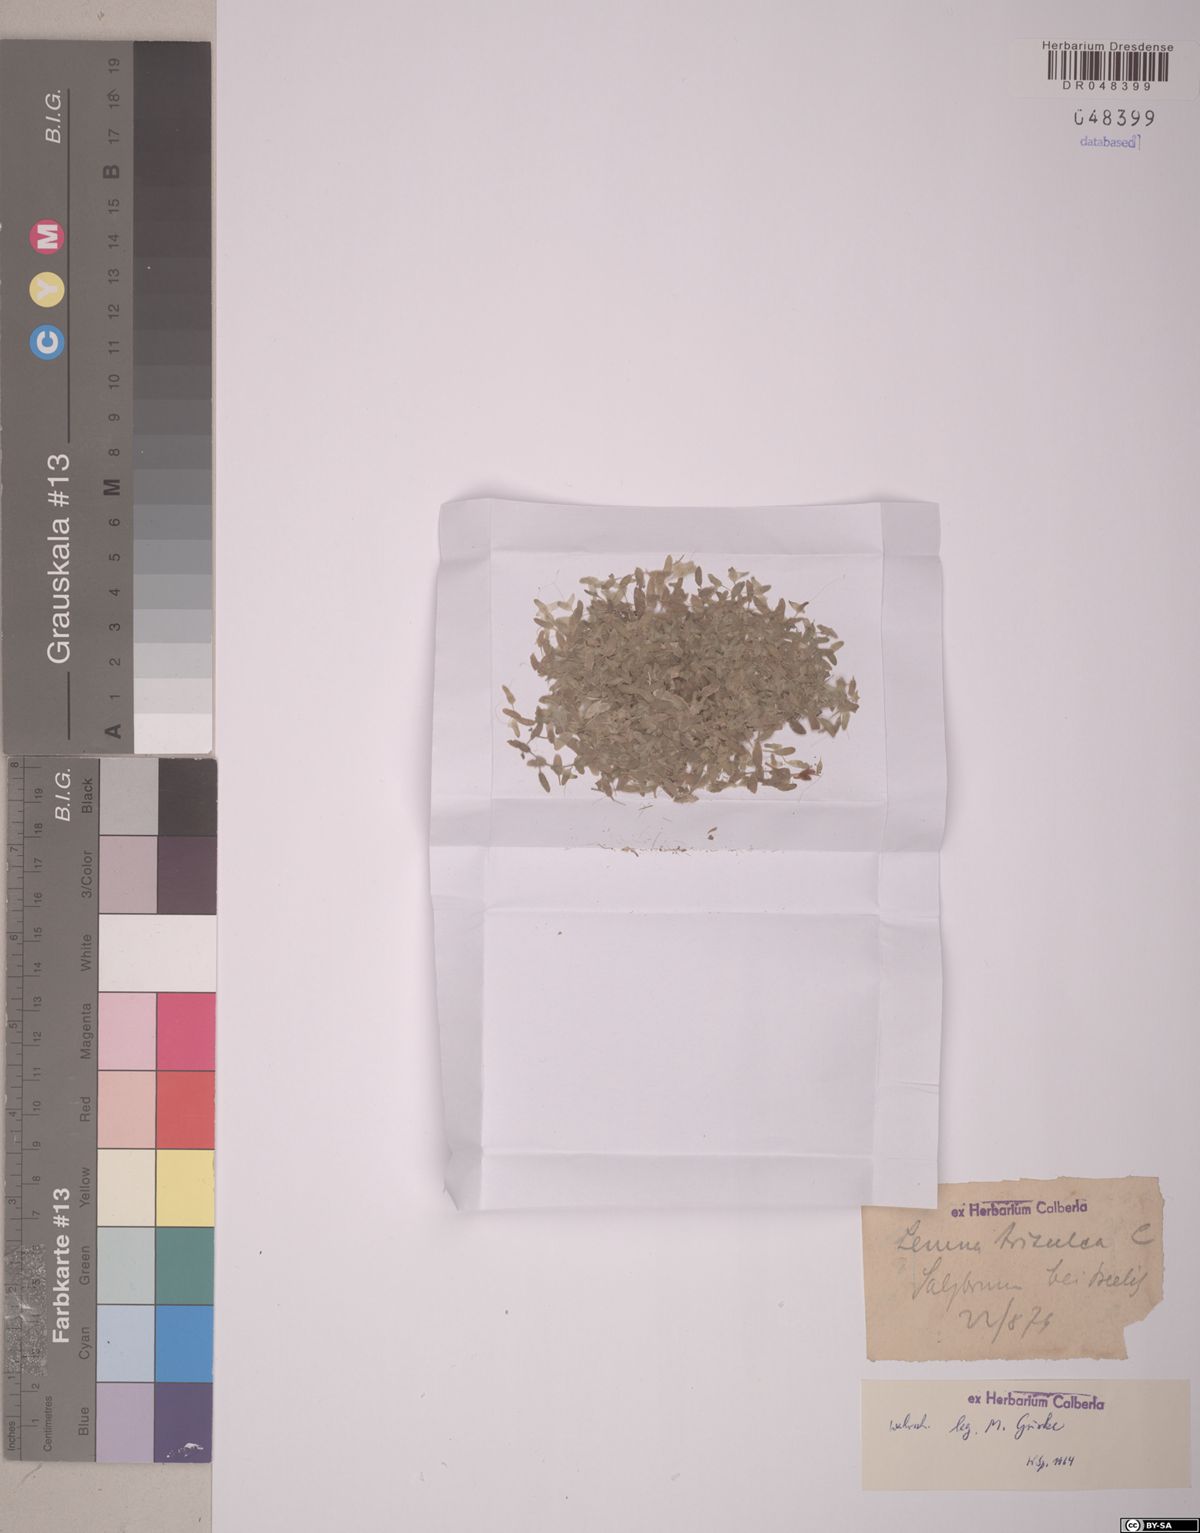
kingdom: Plantae
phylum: Tracheophyta
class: Liliopsida
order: Alismatales
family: Araceae
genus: Lemna
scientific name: Lemna trisulca
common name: Ivy-leaved duckweed
